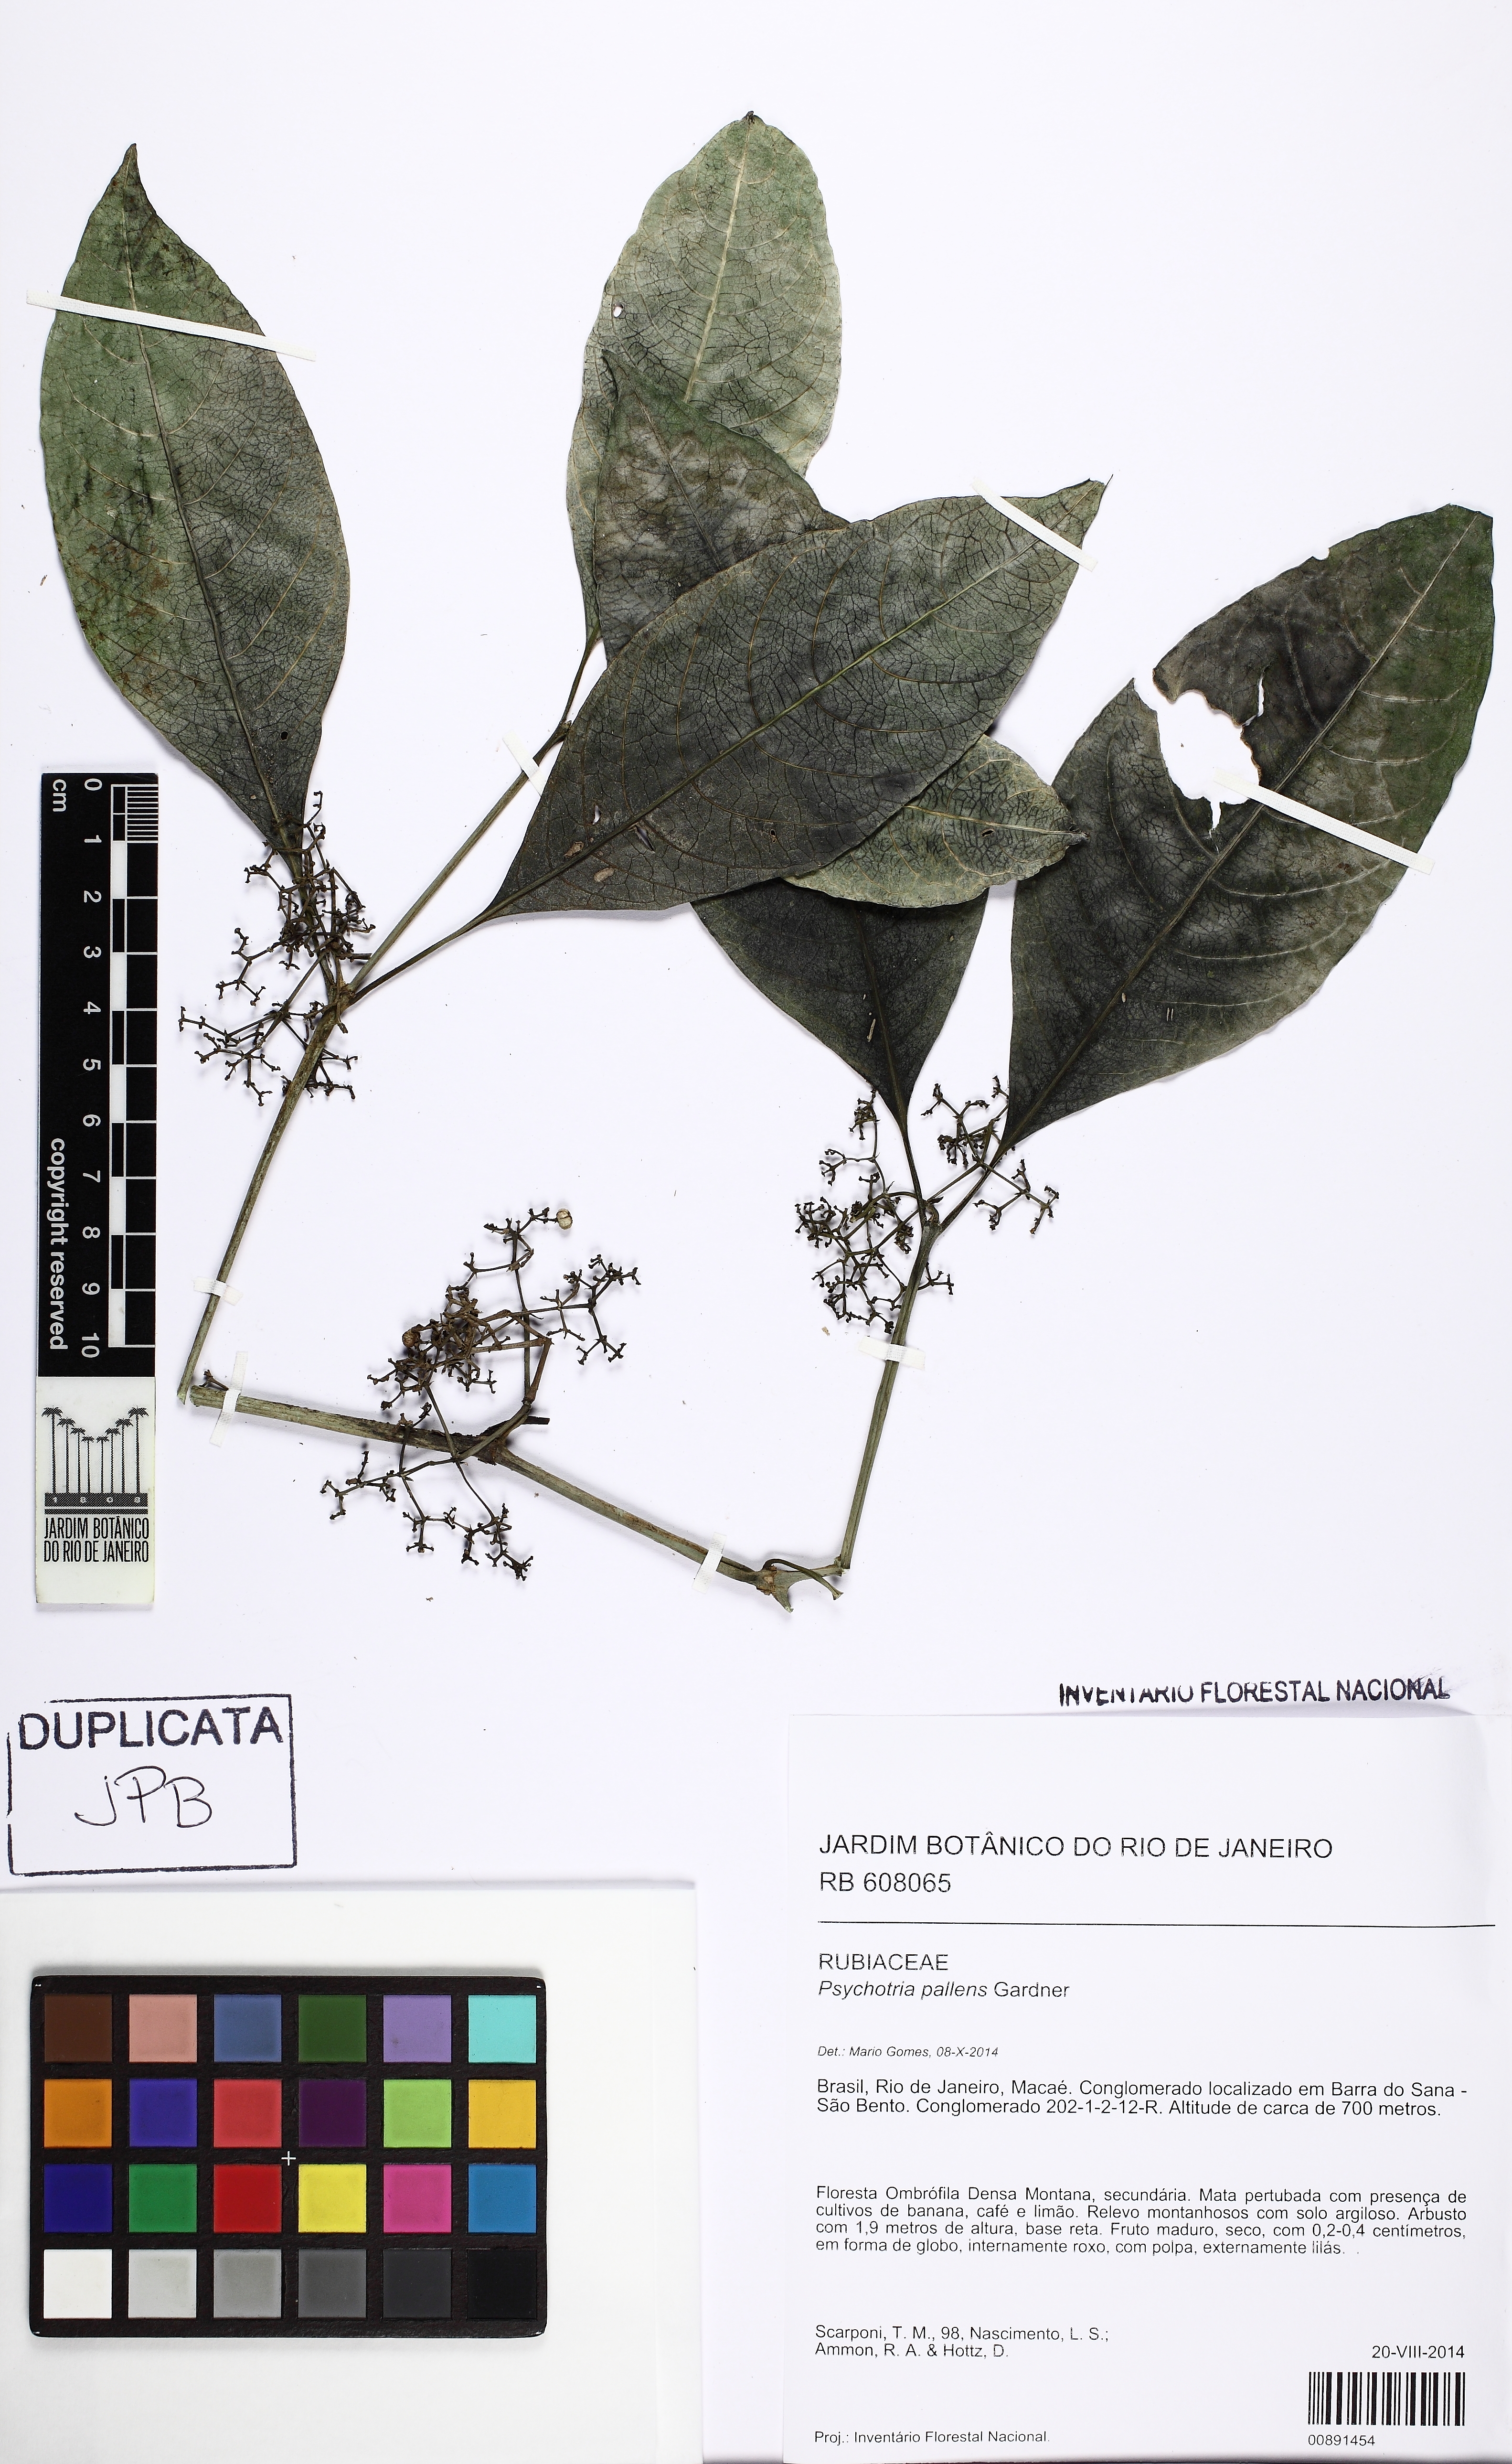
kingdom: Plantae
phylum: Tracheophyta
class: Magnoliopsida
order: Gentianales
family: Rubiaceae
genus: Psychotria
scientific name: Psychotria pallens
